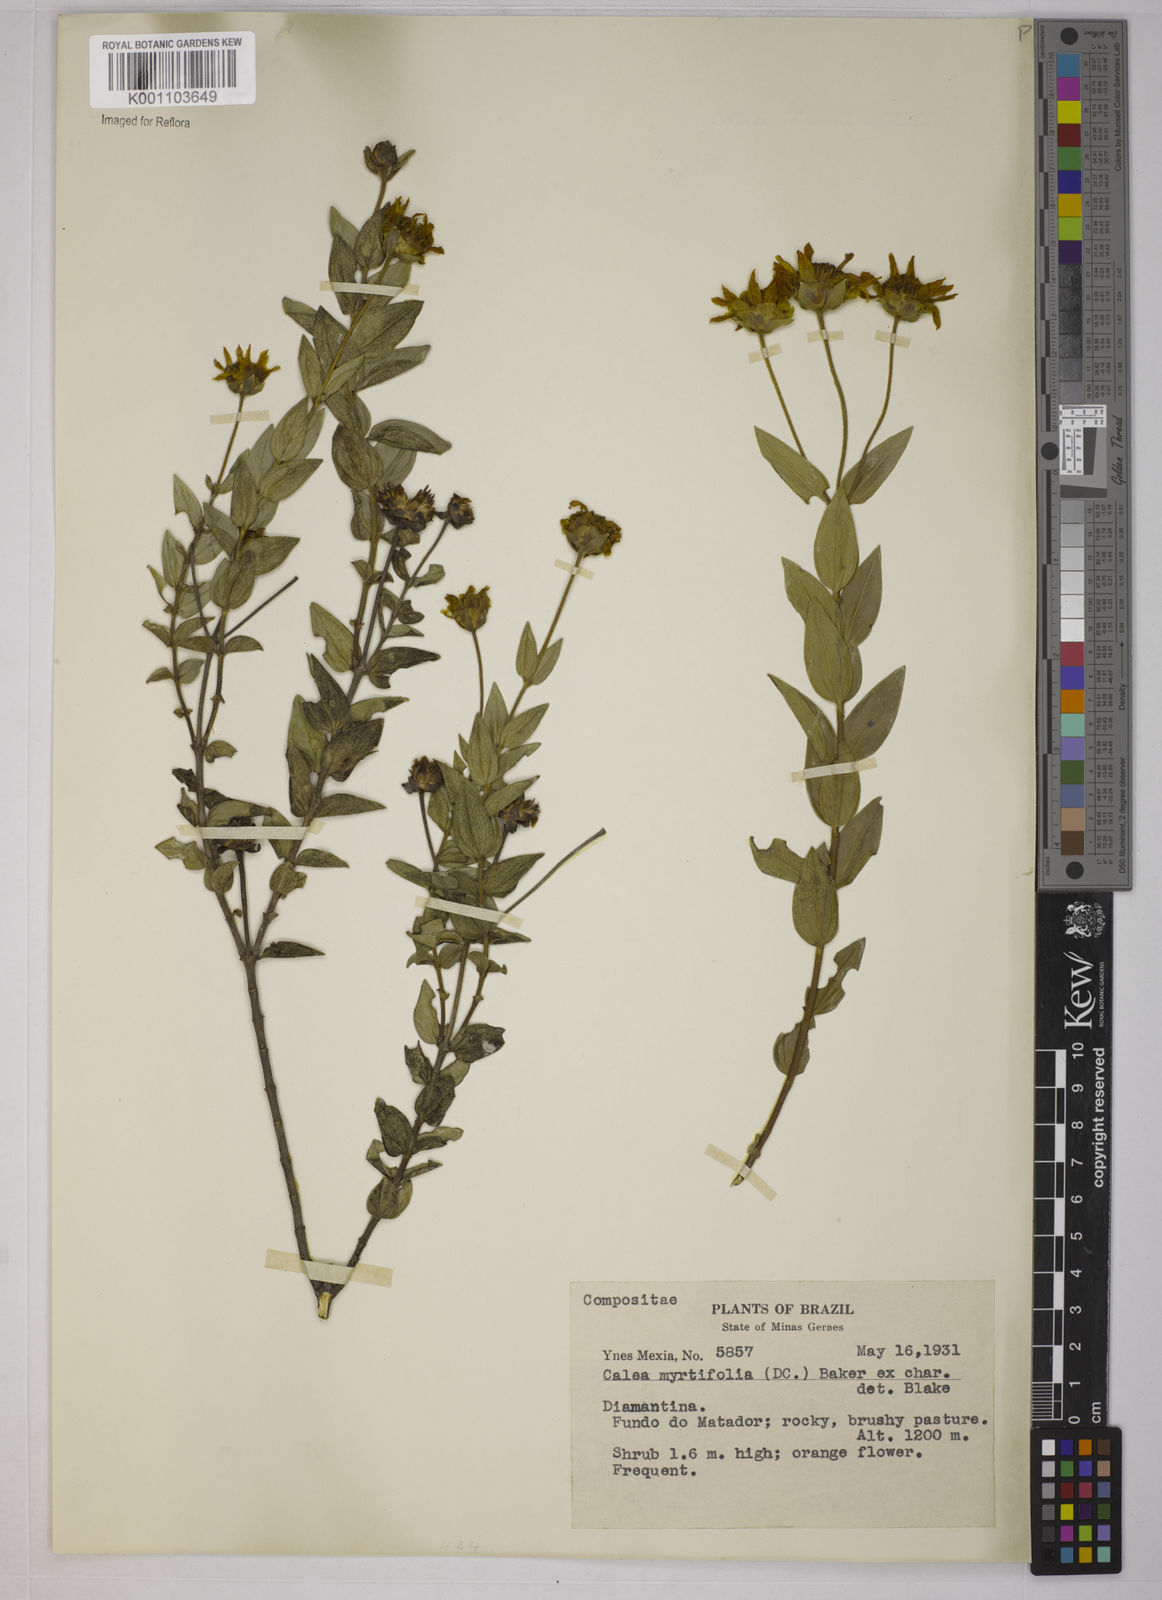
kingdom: Plantae
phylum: Tracheophyta
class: Magnoliopsida
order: Asterales
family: Asteraceae
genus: Calea
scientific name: Calea myrtifolia
